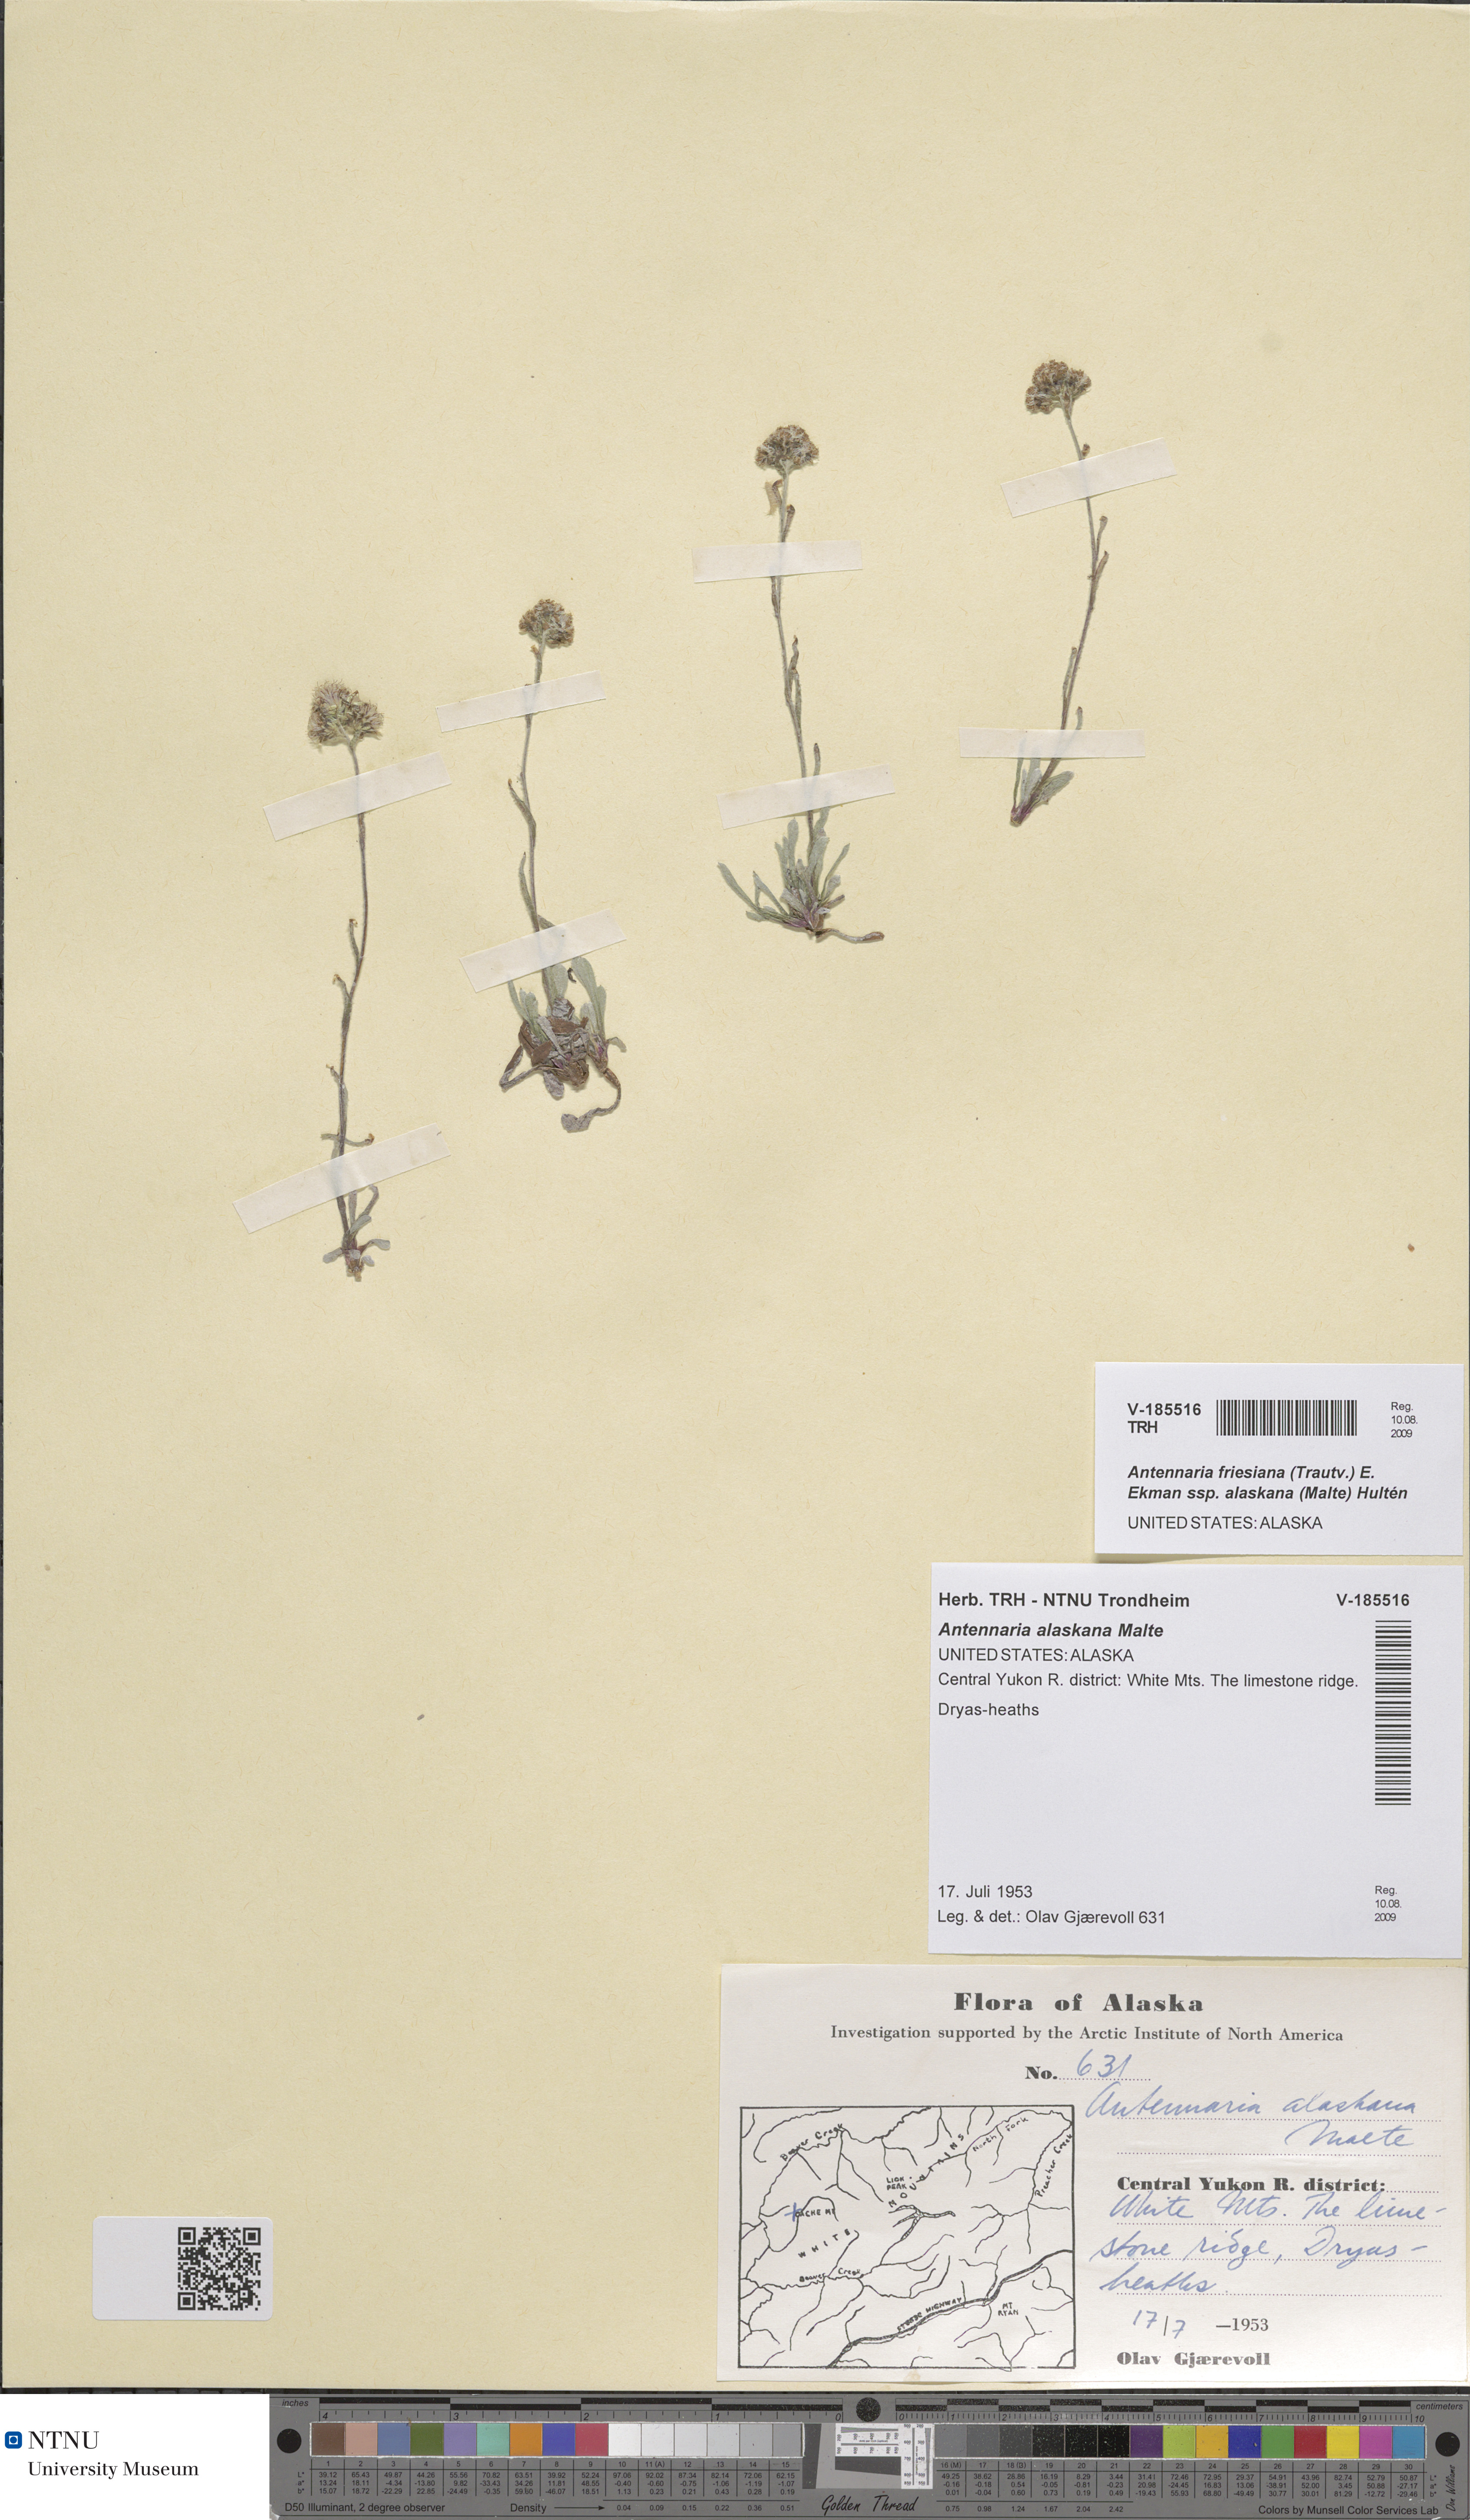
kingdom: Plantae
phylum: Tracheophyta
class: Magnoliopsida
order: Asterales
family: Asteraceae
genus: Antennaria
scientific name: Antennaria friesiana
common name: Fries' pussytoes
